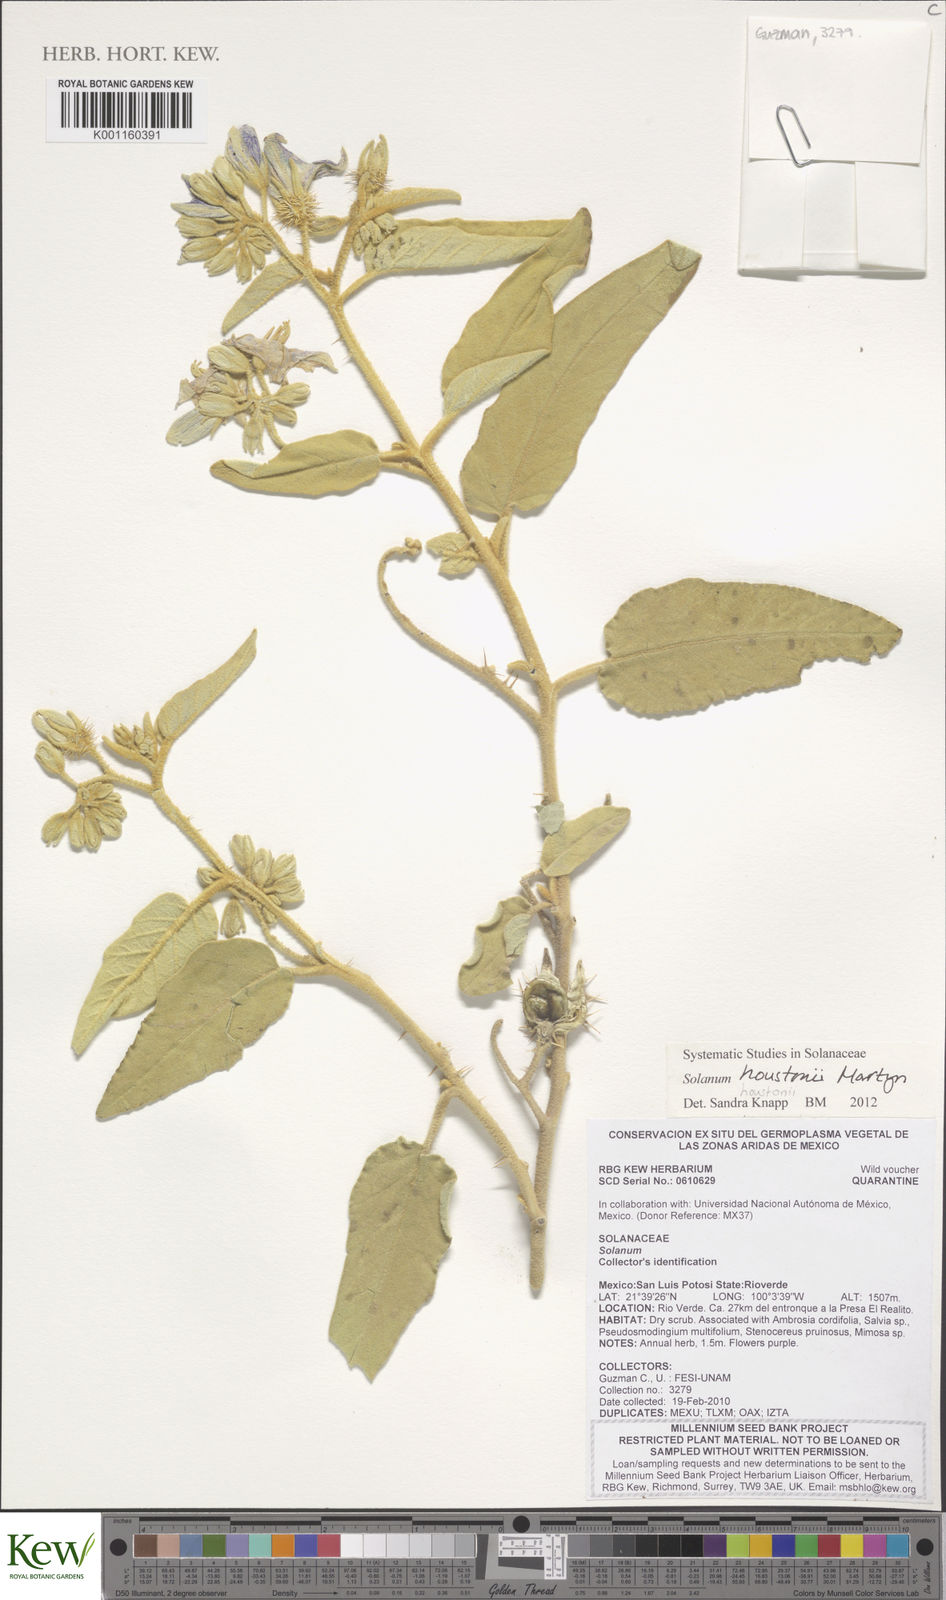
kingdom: Plantae
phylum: Tracheophyta
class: Magnoliopsida
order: Solanales
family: Solanaceae
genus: Solanum
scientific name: Solanum houstonii
